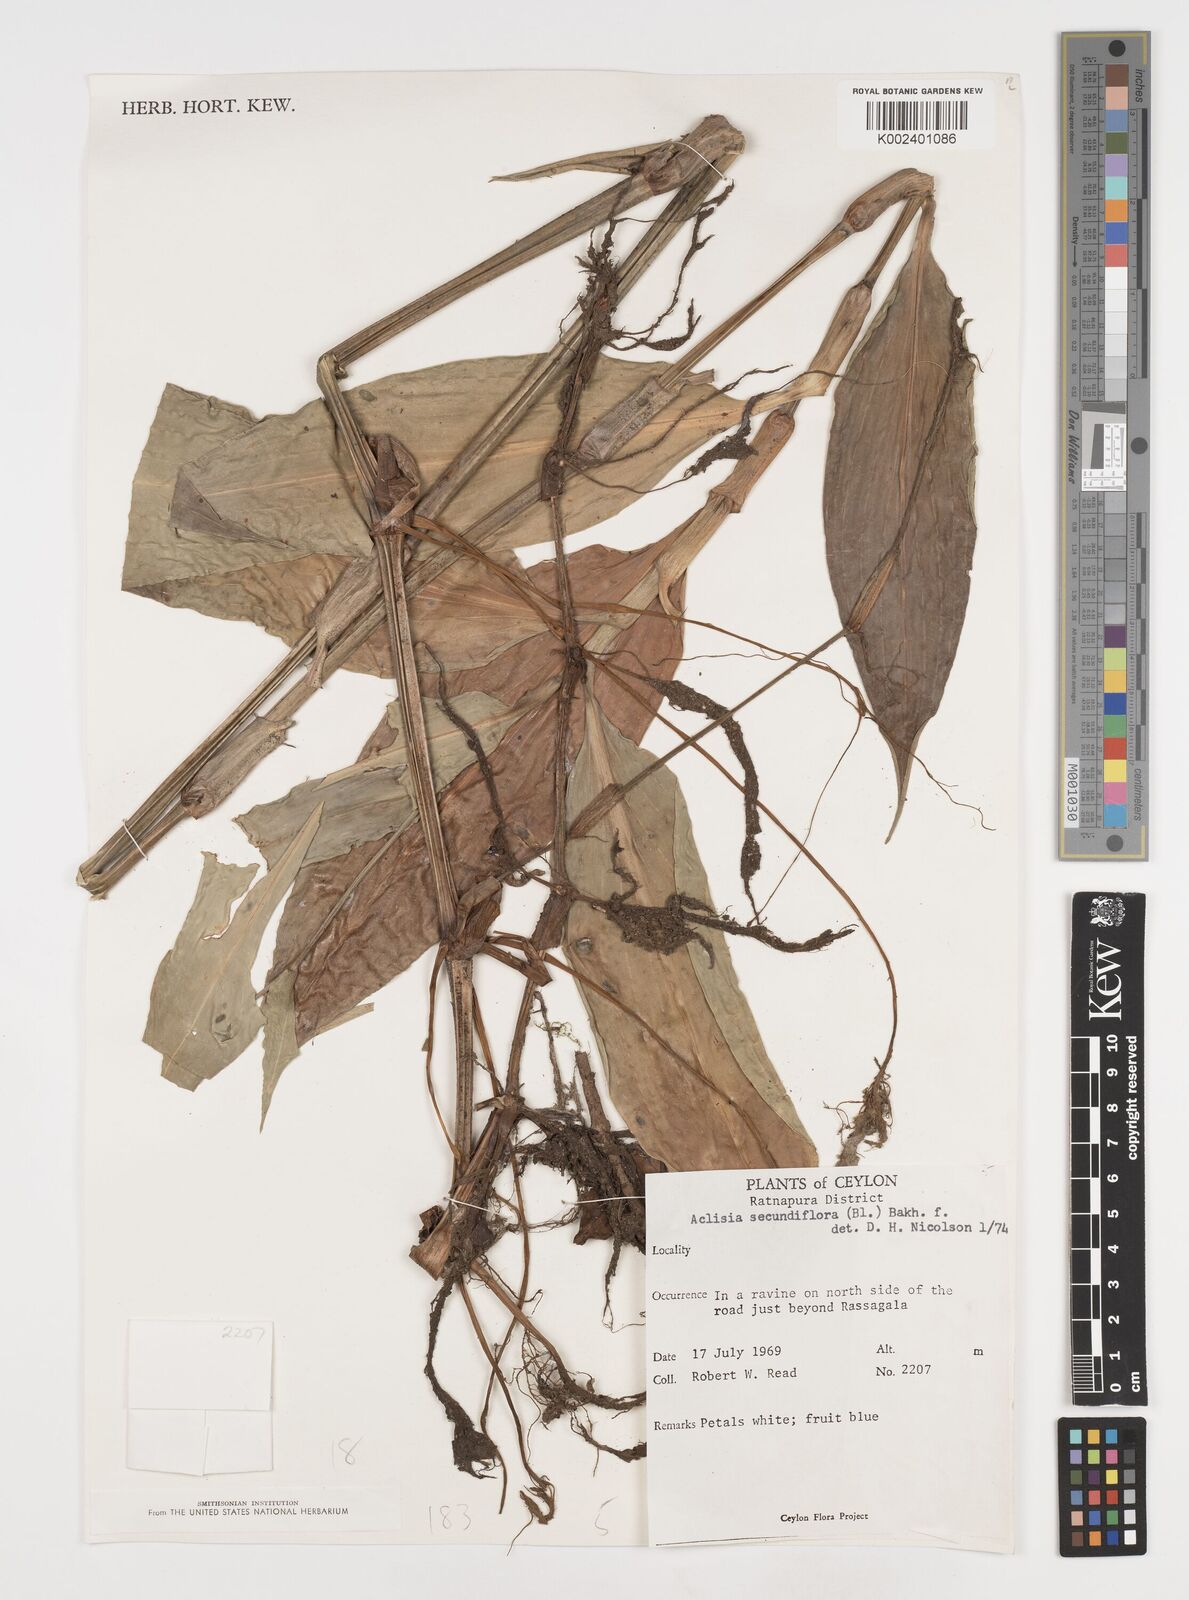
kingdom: Plantae
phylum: Tracheophyta
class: Liliopsida
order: Commelinales
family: Commelinaceae
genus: Pollia
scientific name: Pollia secundiflora
